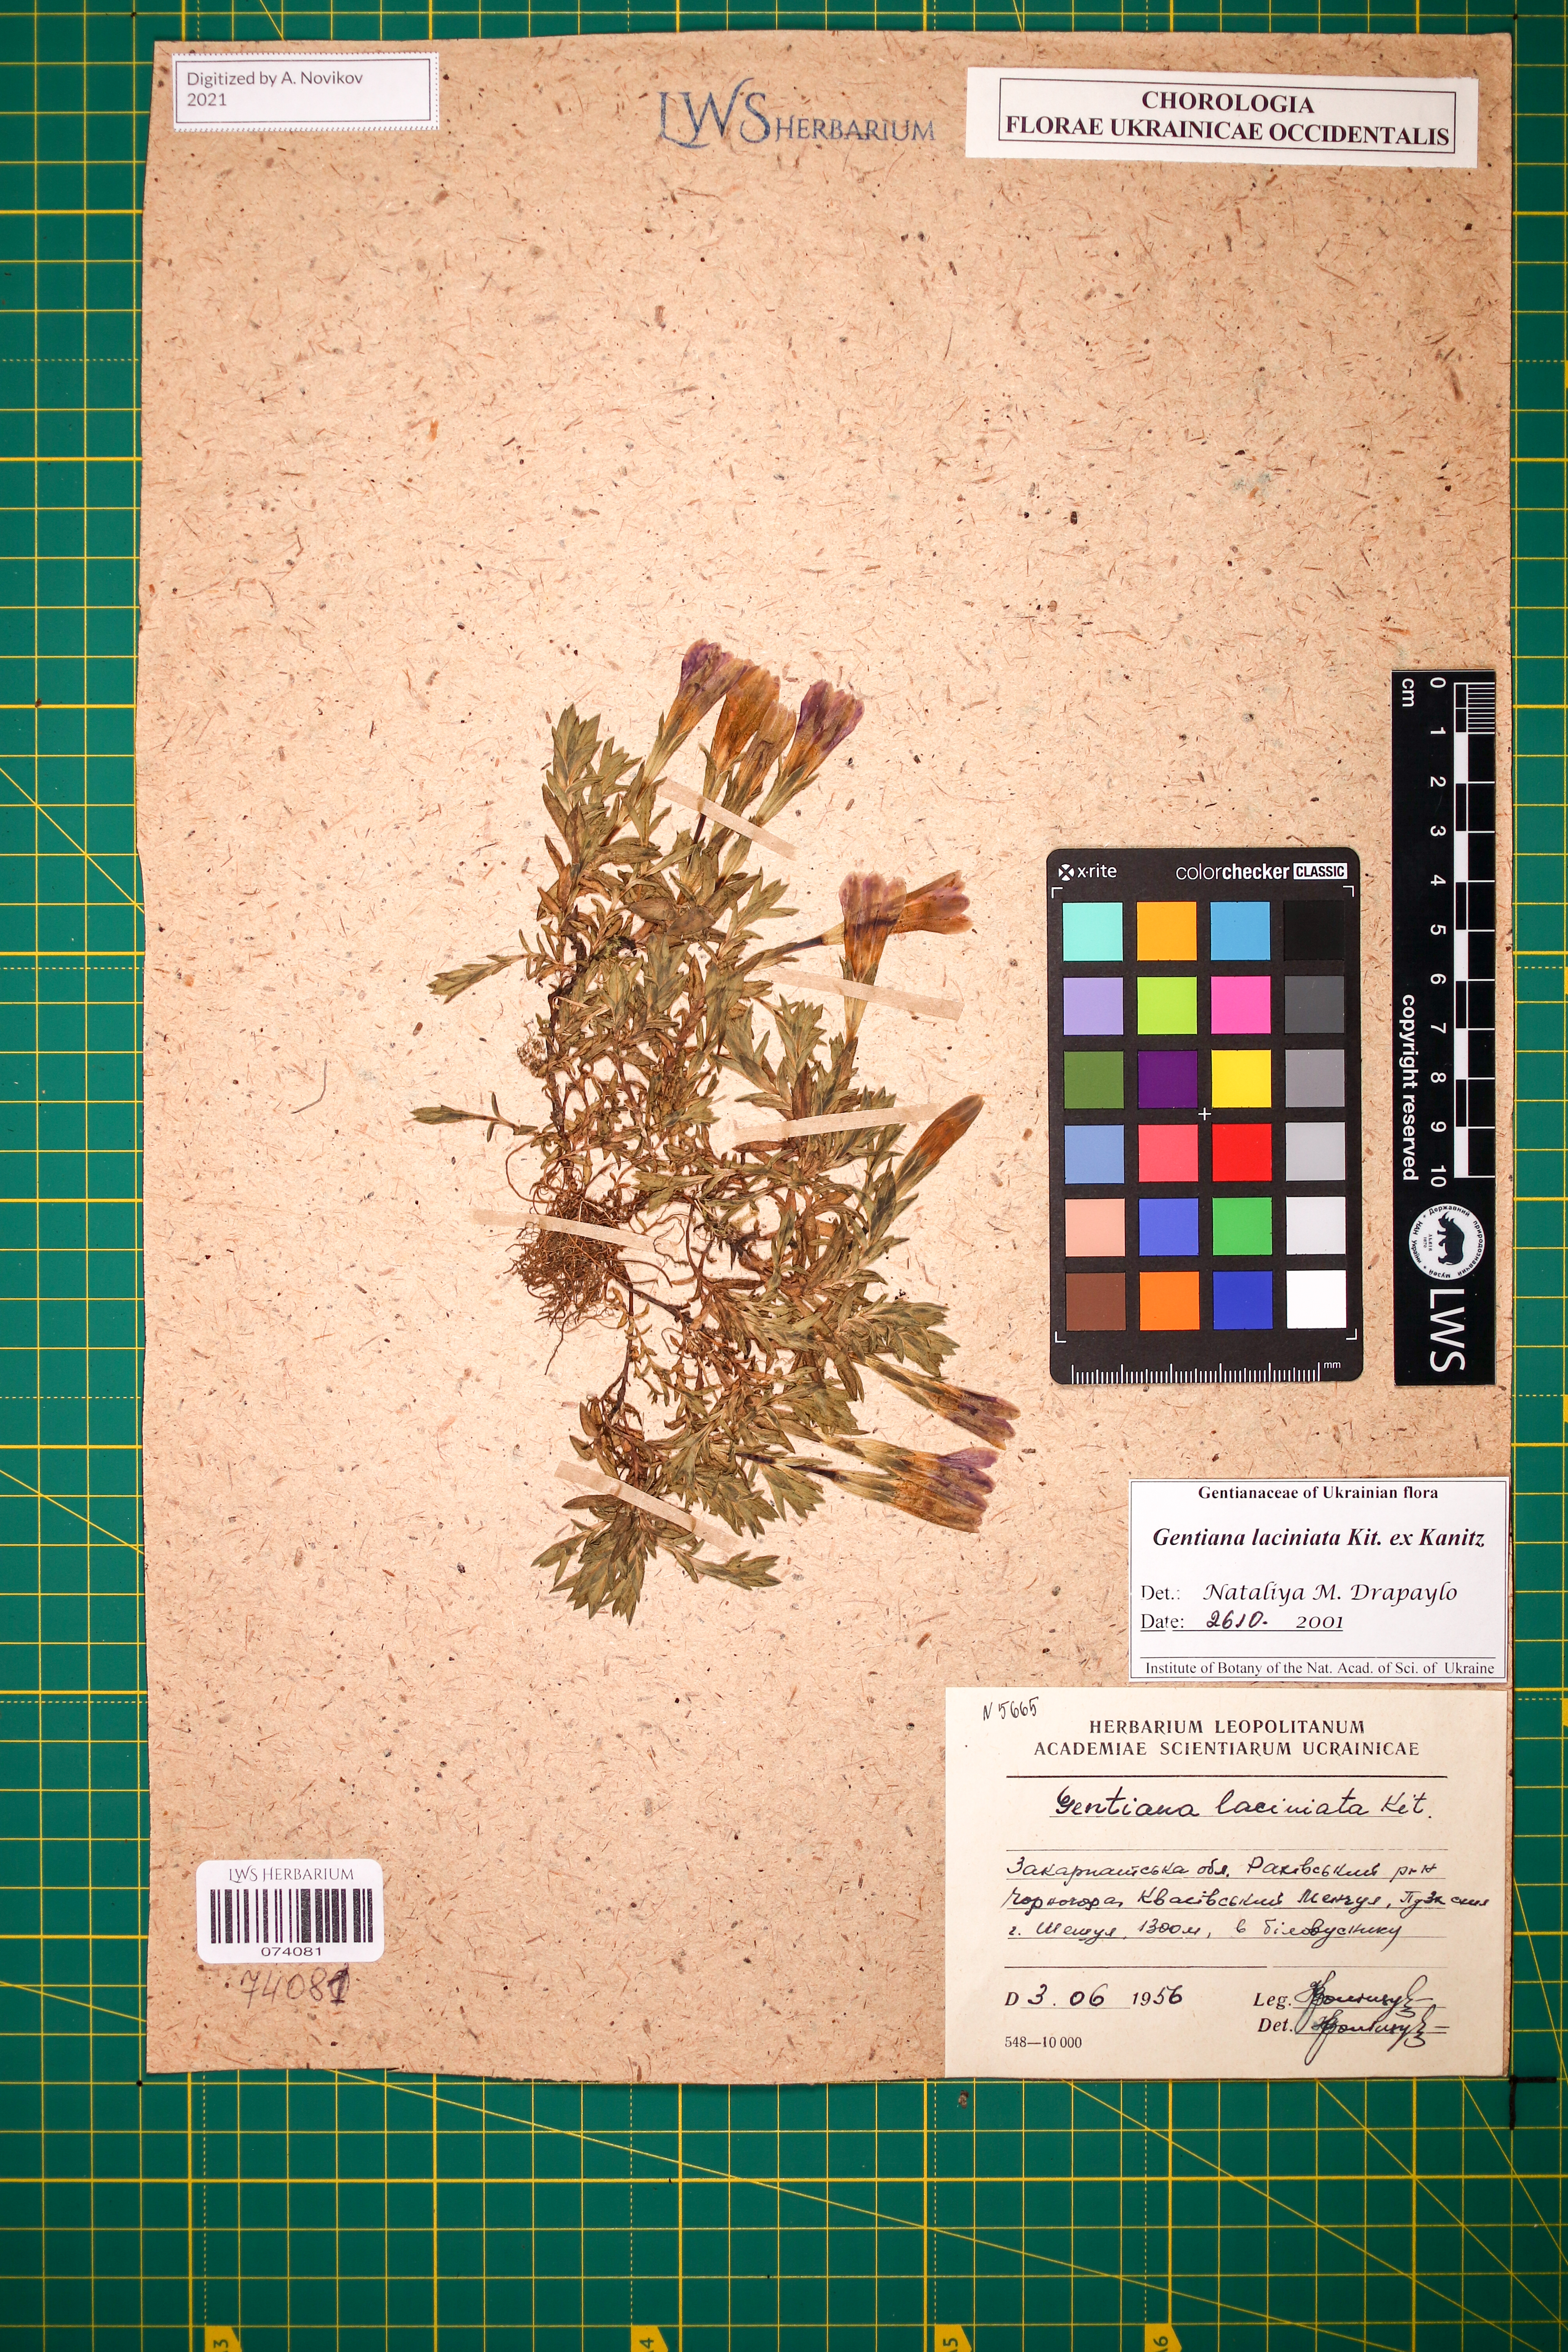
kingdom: Plantae
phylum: Tracheophyta
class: Magnoliopsida
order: Gentianales
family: Gentianaceae
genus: Gentiana
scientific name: Gentiana laciniata
